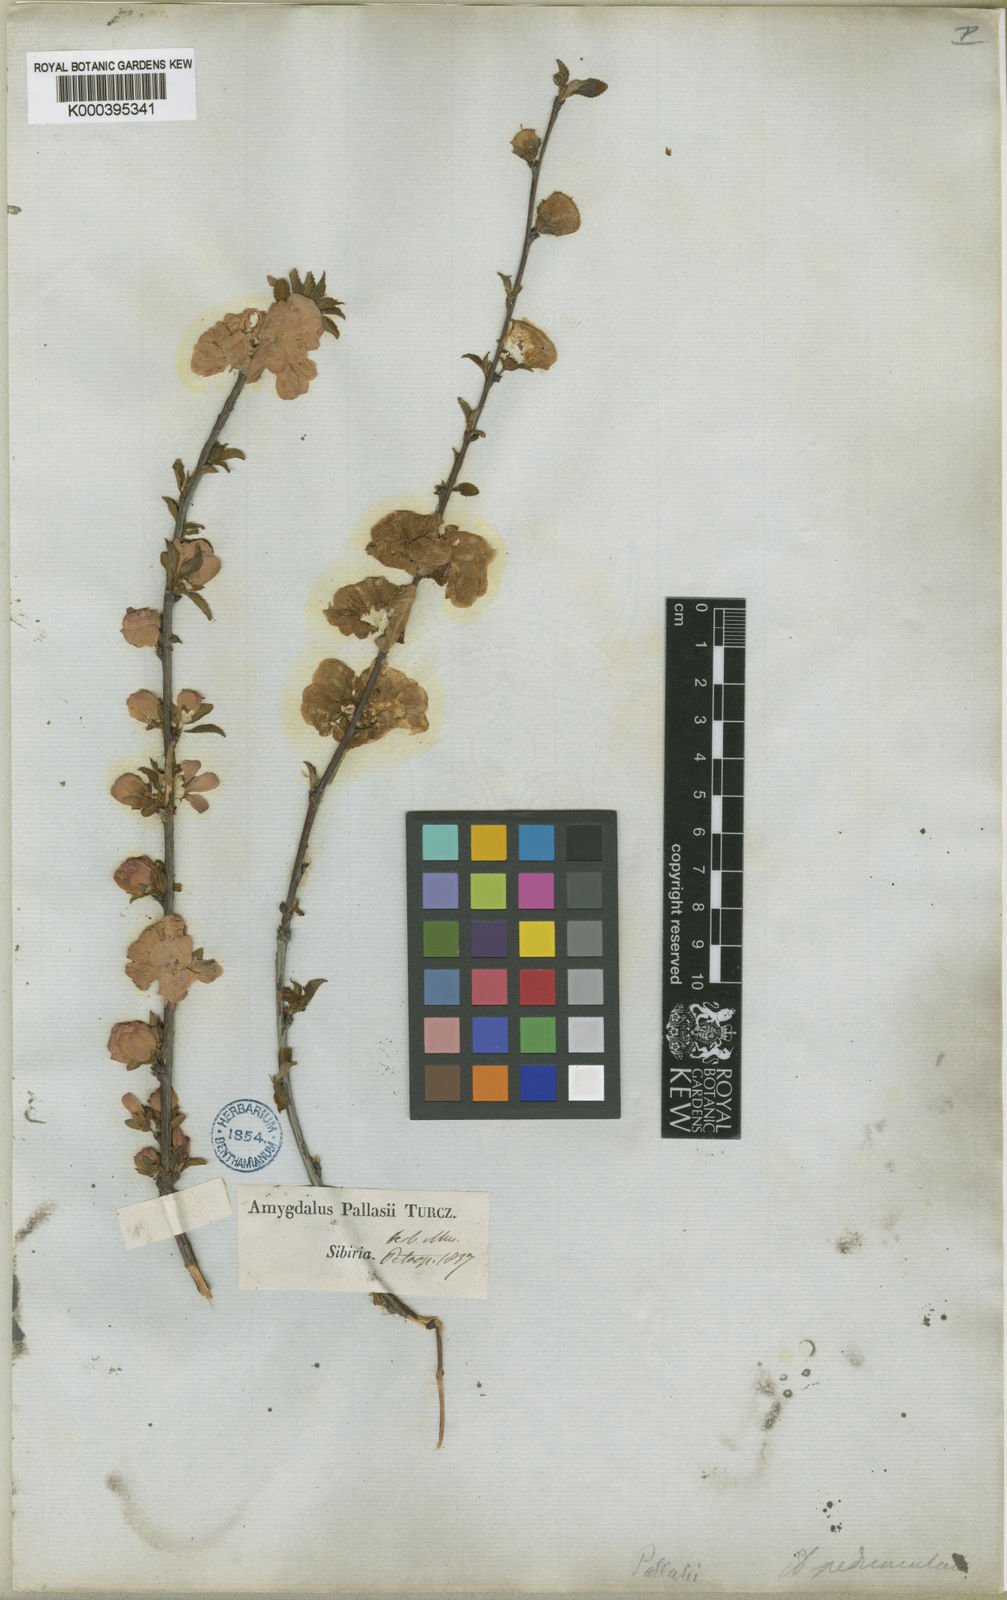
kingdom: Plantae
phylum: Tracheophyta
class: Magnoliopsida
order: Rosales
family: Rosaceae
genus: Prunus
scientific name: Prunus
